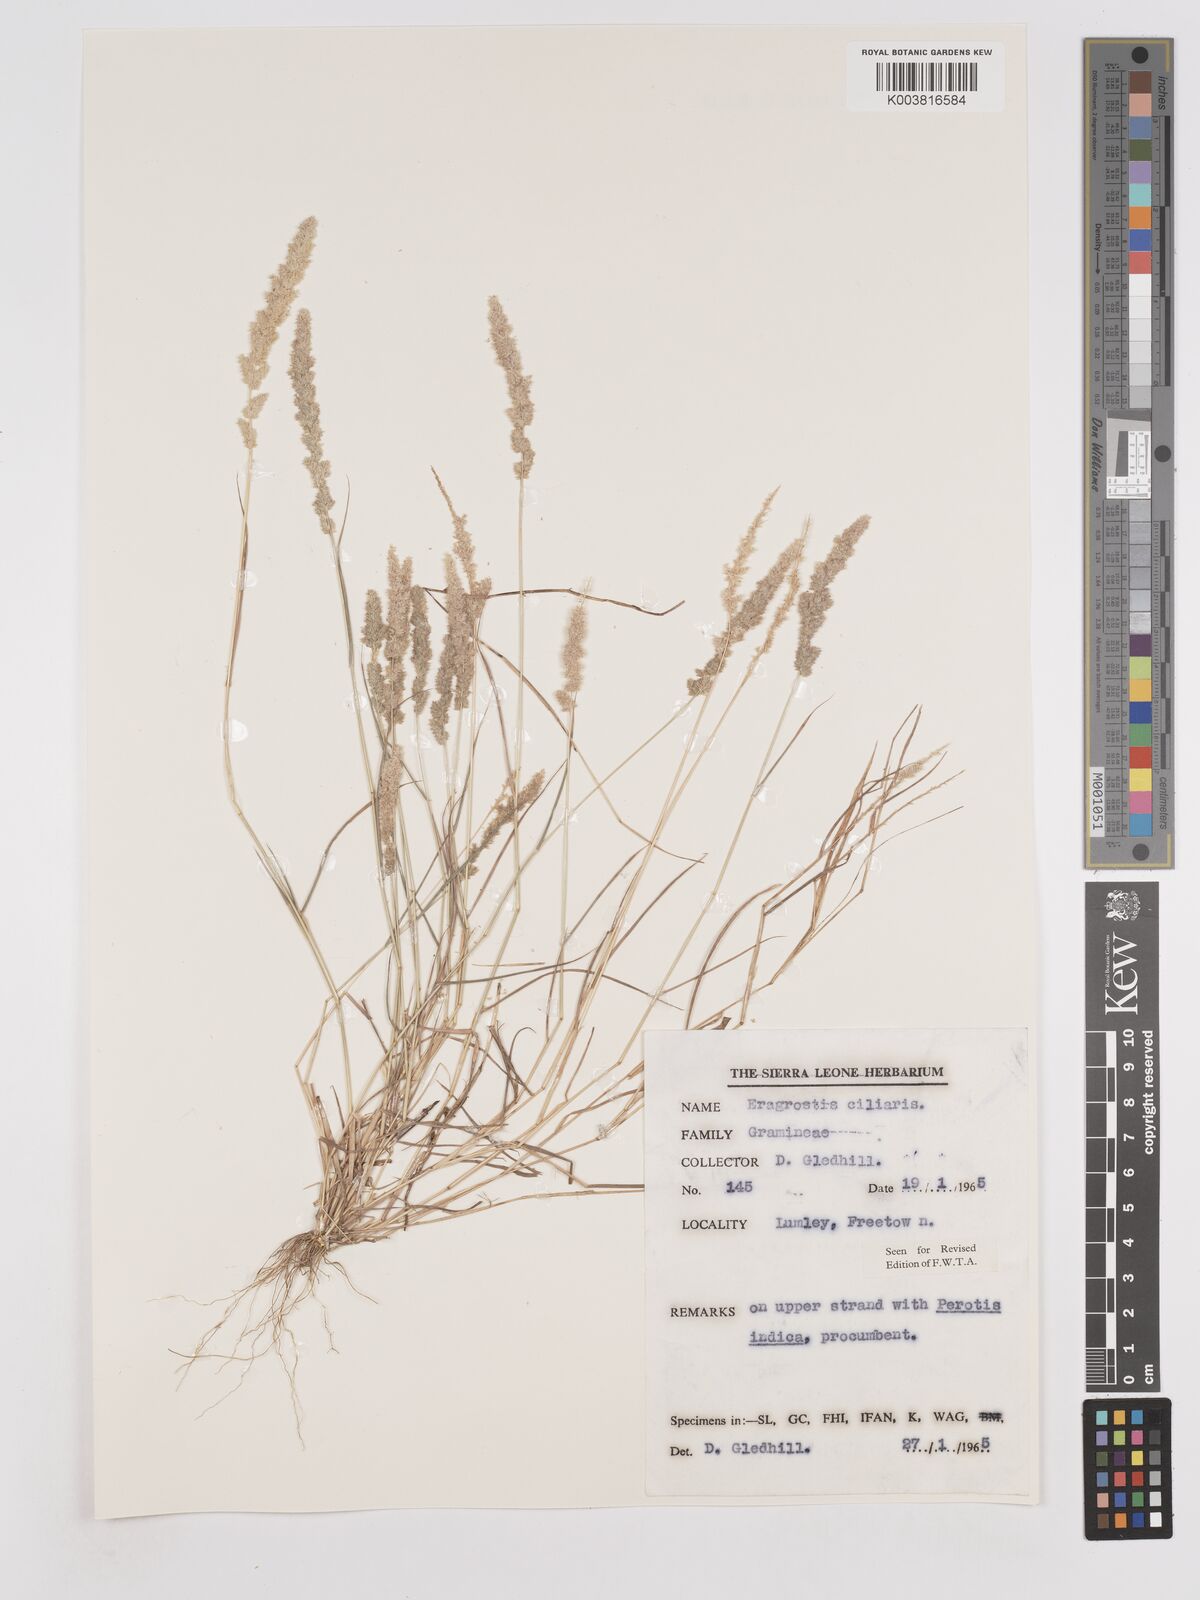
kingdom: Plantae
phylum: Tracheophyta
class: Liliopsida
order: Poales
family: Poaceae
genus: Eragrostis
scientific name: Eragrostis ciliaris
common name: Gophertail lovegrass
